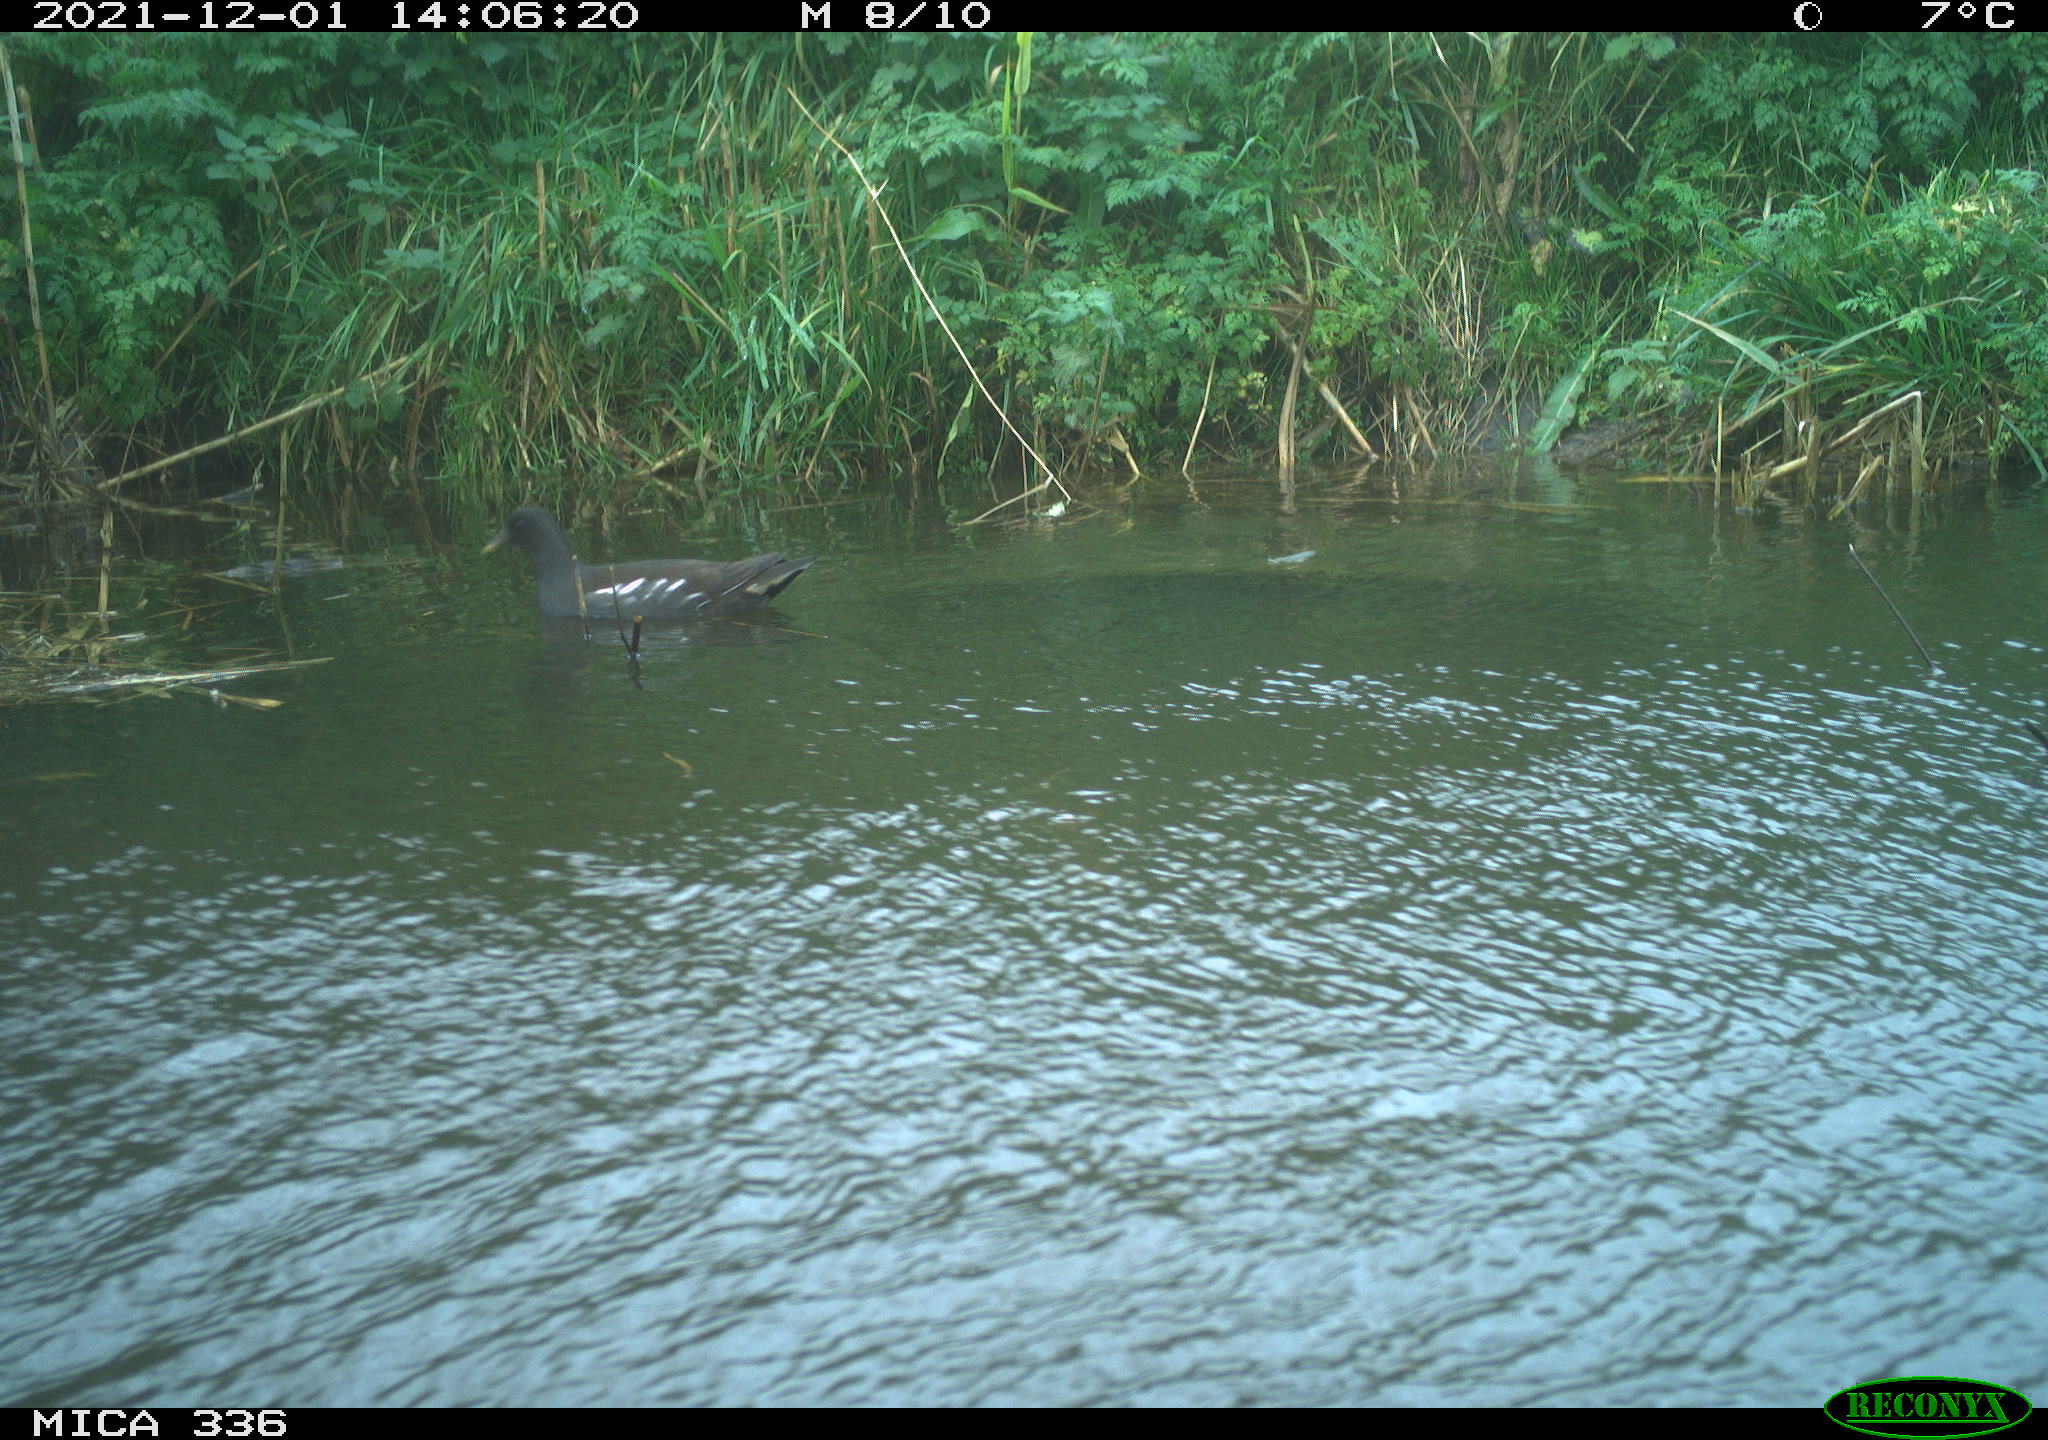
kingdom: Animalia
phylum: Chordata
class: Aves
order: Gruiformes
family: Rallidae
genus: Gallinula
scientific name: Gallinula chloropus
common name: Common moorhen
